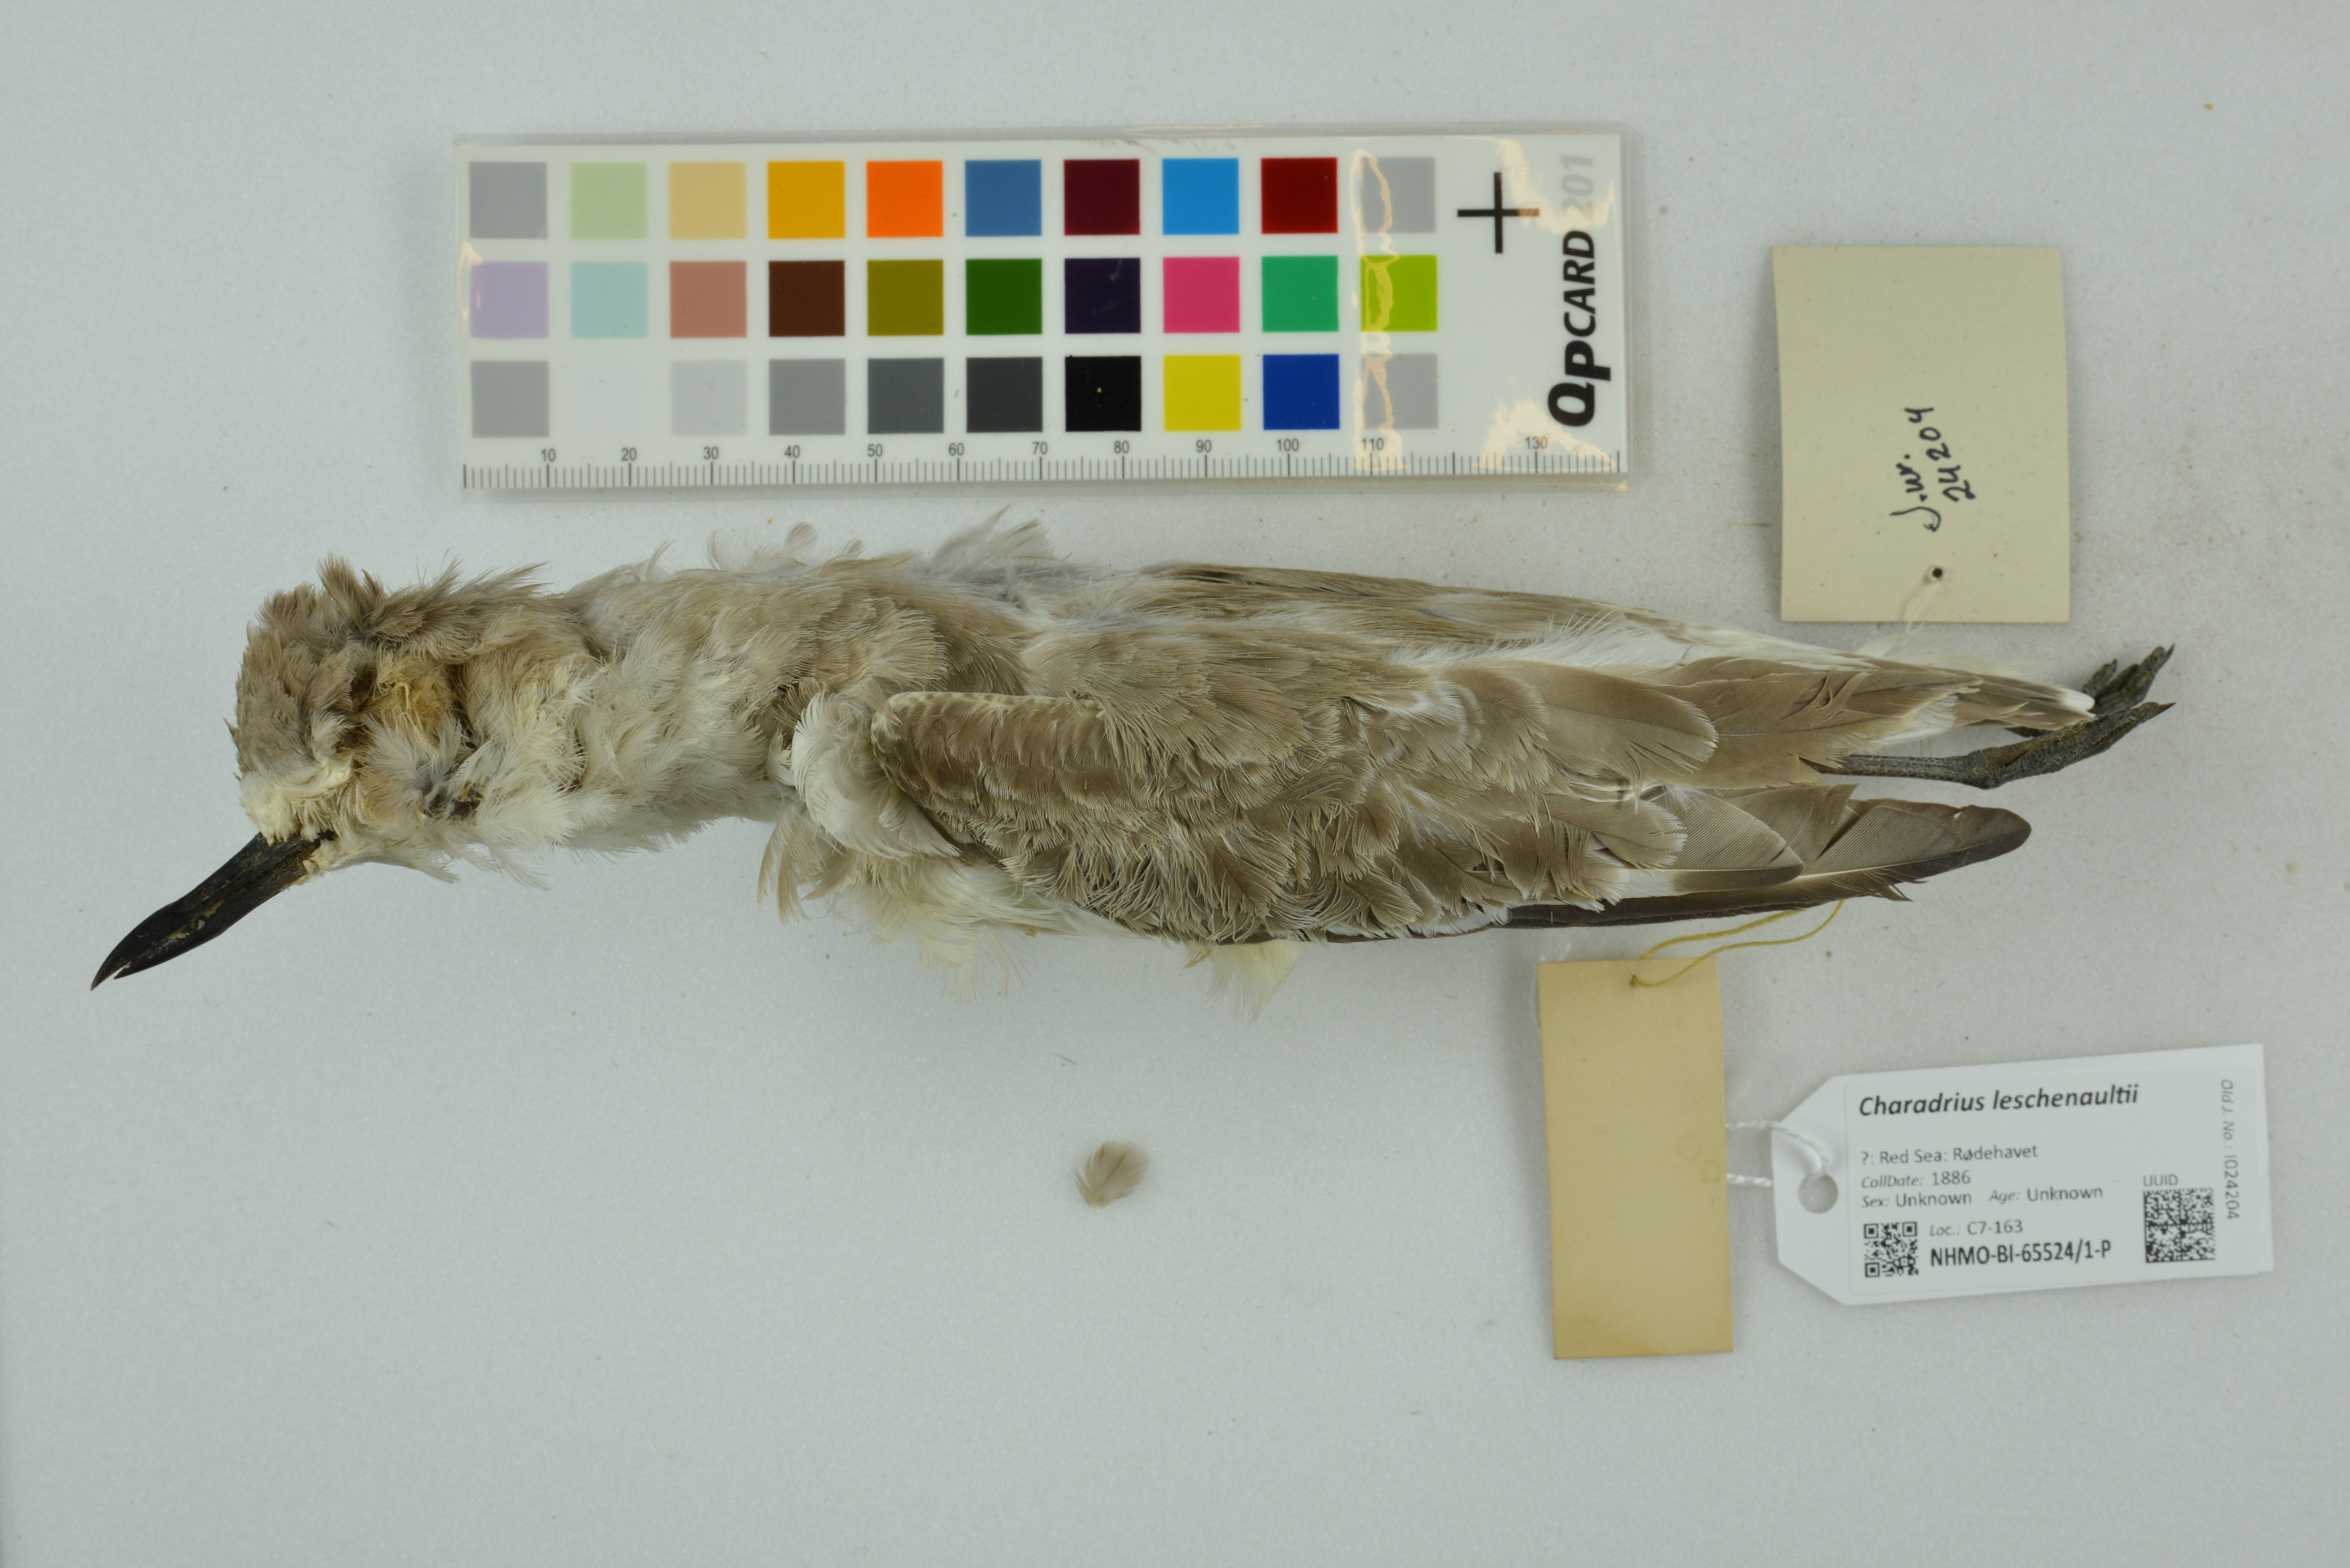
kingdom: Animalia
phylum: Chordata
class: Aves
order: Charadriiformes
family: Charadriidae
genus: Charadrius
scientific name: Charadrius leschenaultii
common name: Greater sand plover
